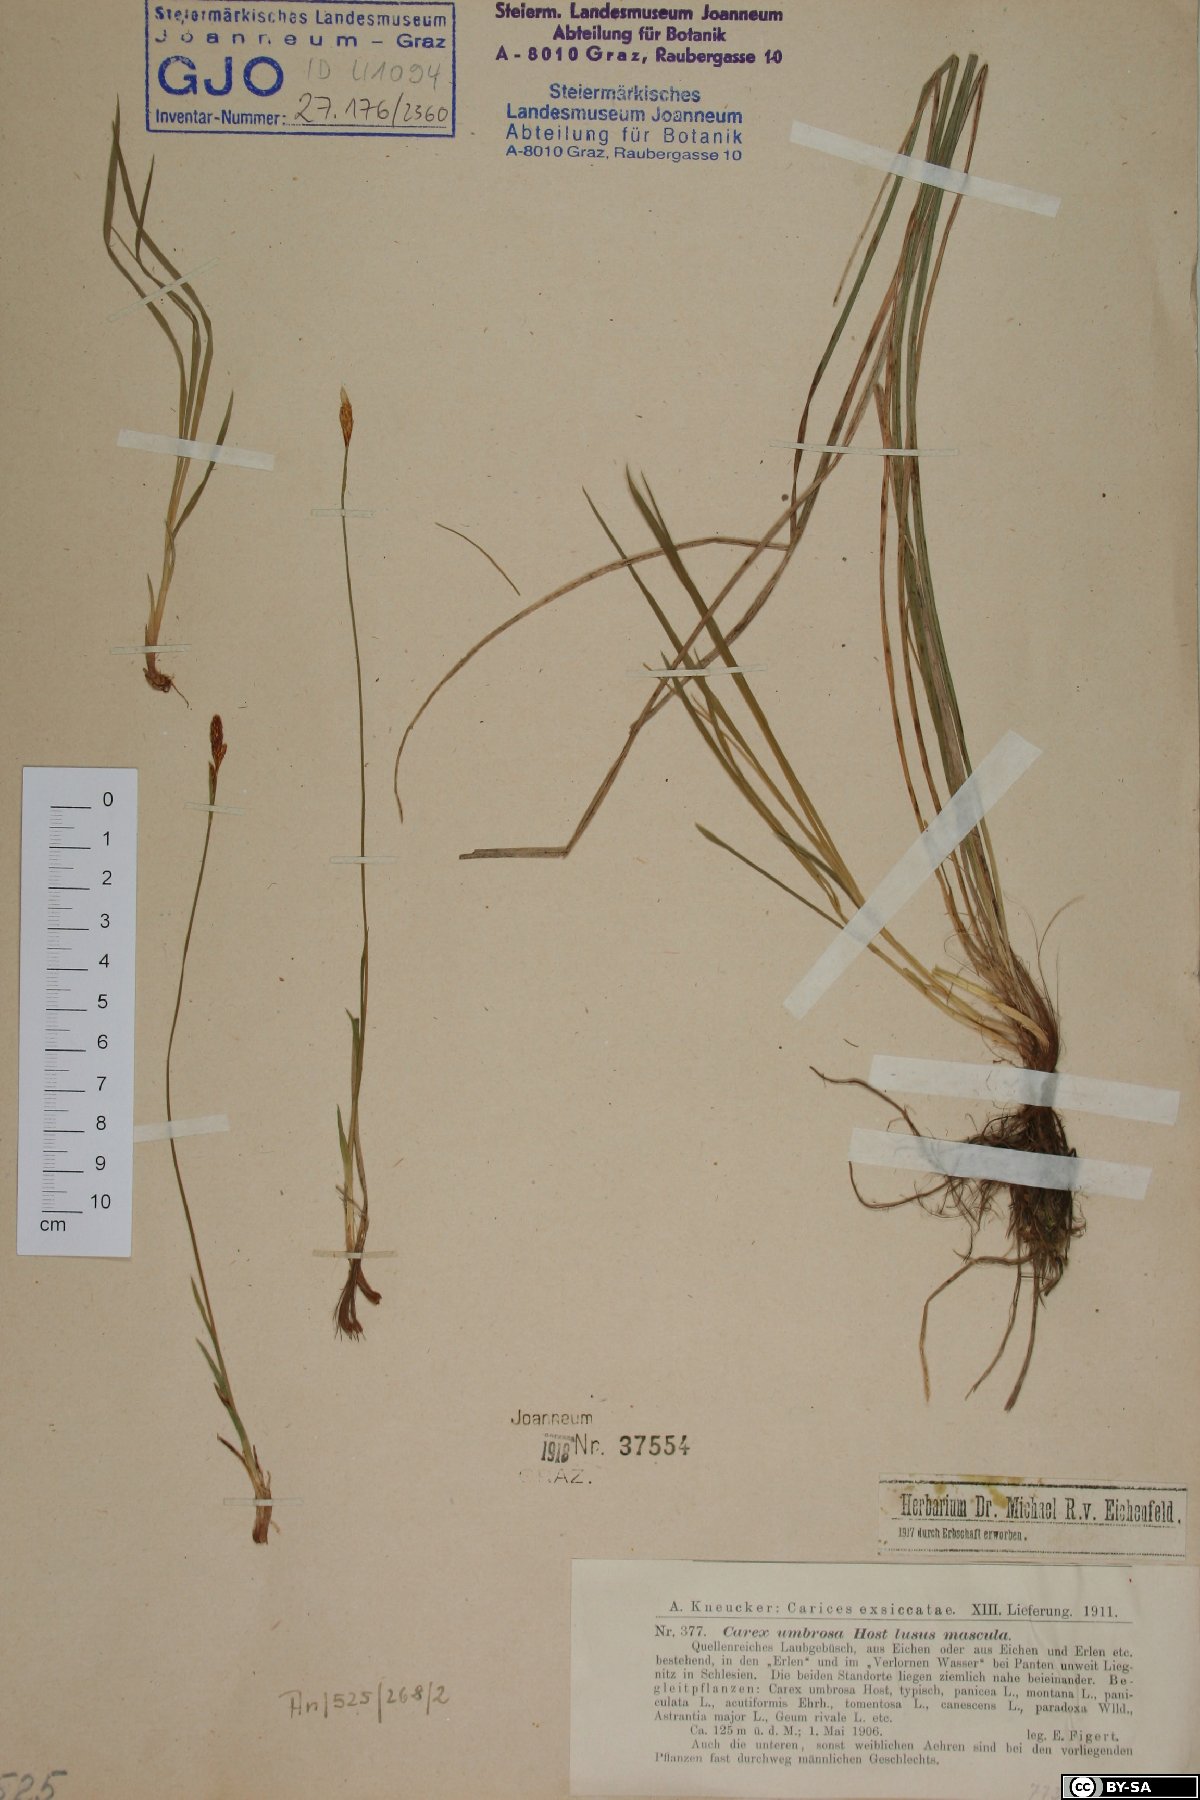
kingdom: Plantae
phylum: Tracheophyta
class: Liliopsida
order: Poales
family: Cyperaceae
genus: Carex
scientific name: Carex umbrosa
